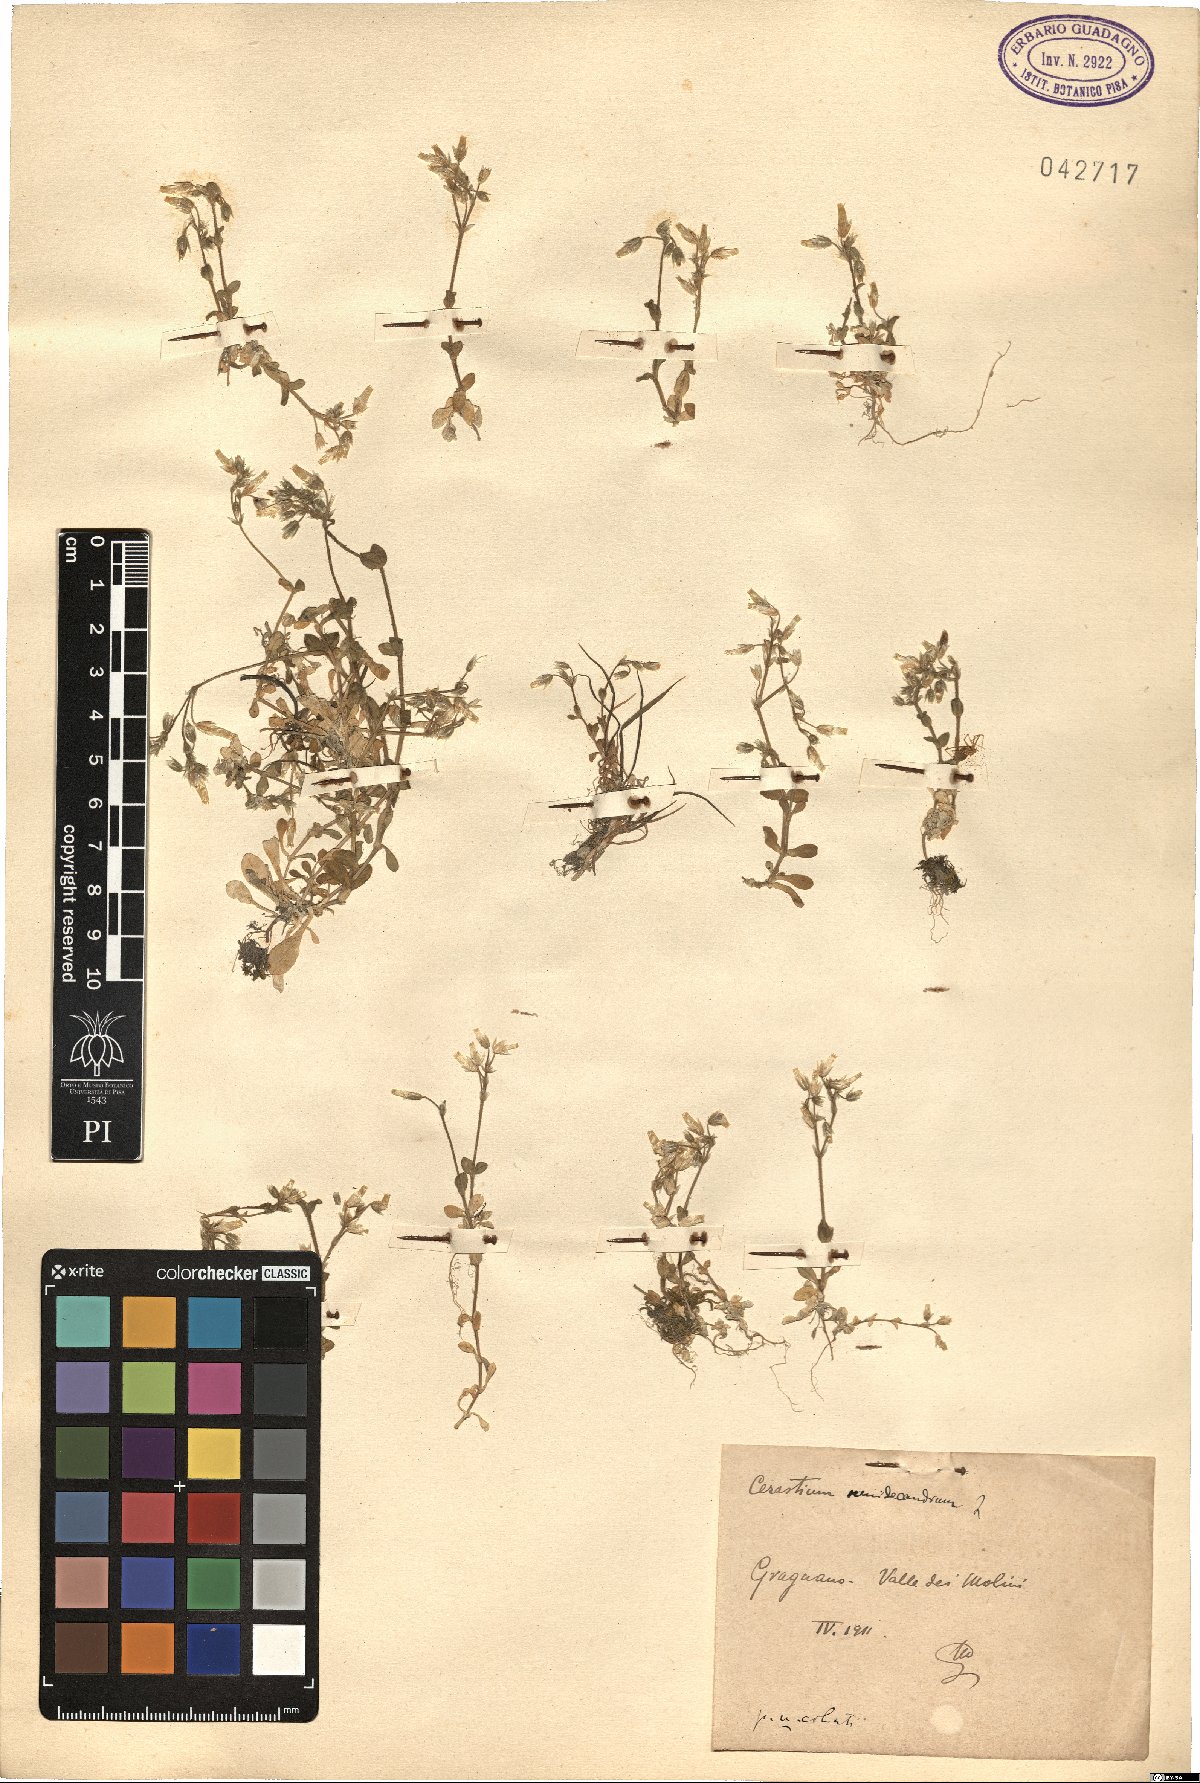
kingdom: Plantae
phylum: Tracheophyta
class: Magnoliopsida
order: Caryophyllales
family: Caryophyllaceae
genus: Cerastium
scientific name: Cerastium semidecandrum
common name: Little mouse-ear
